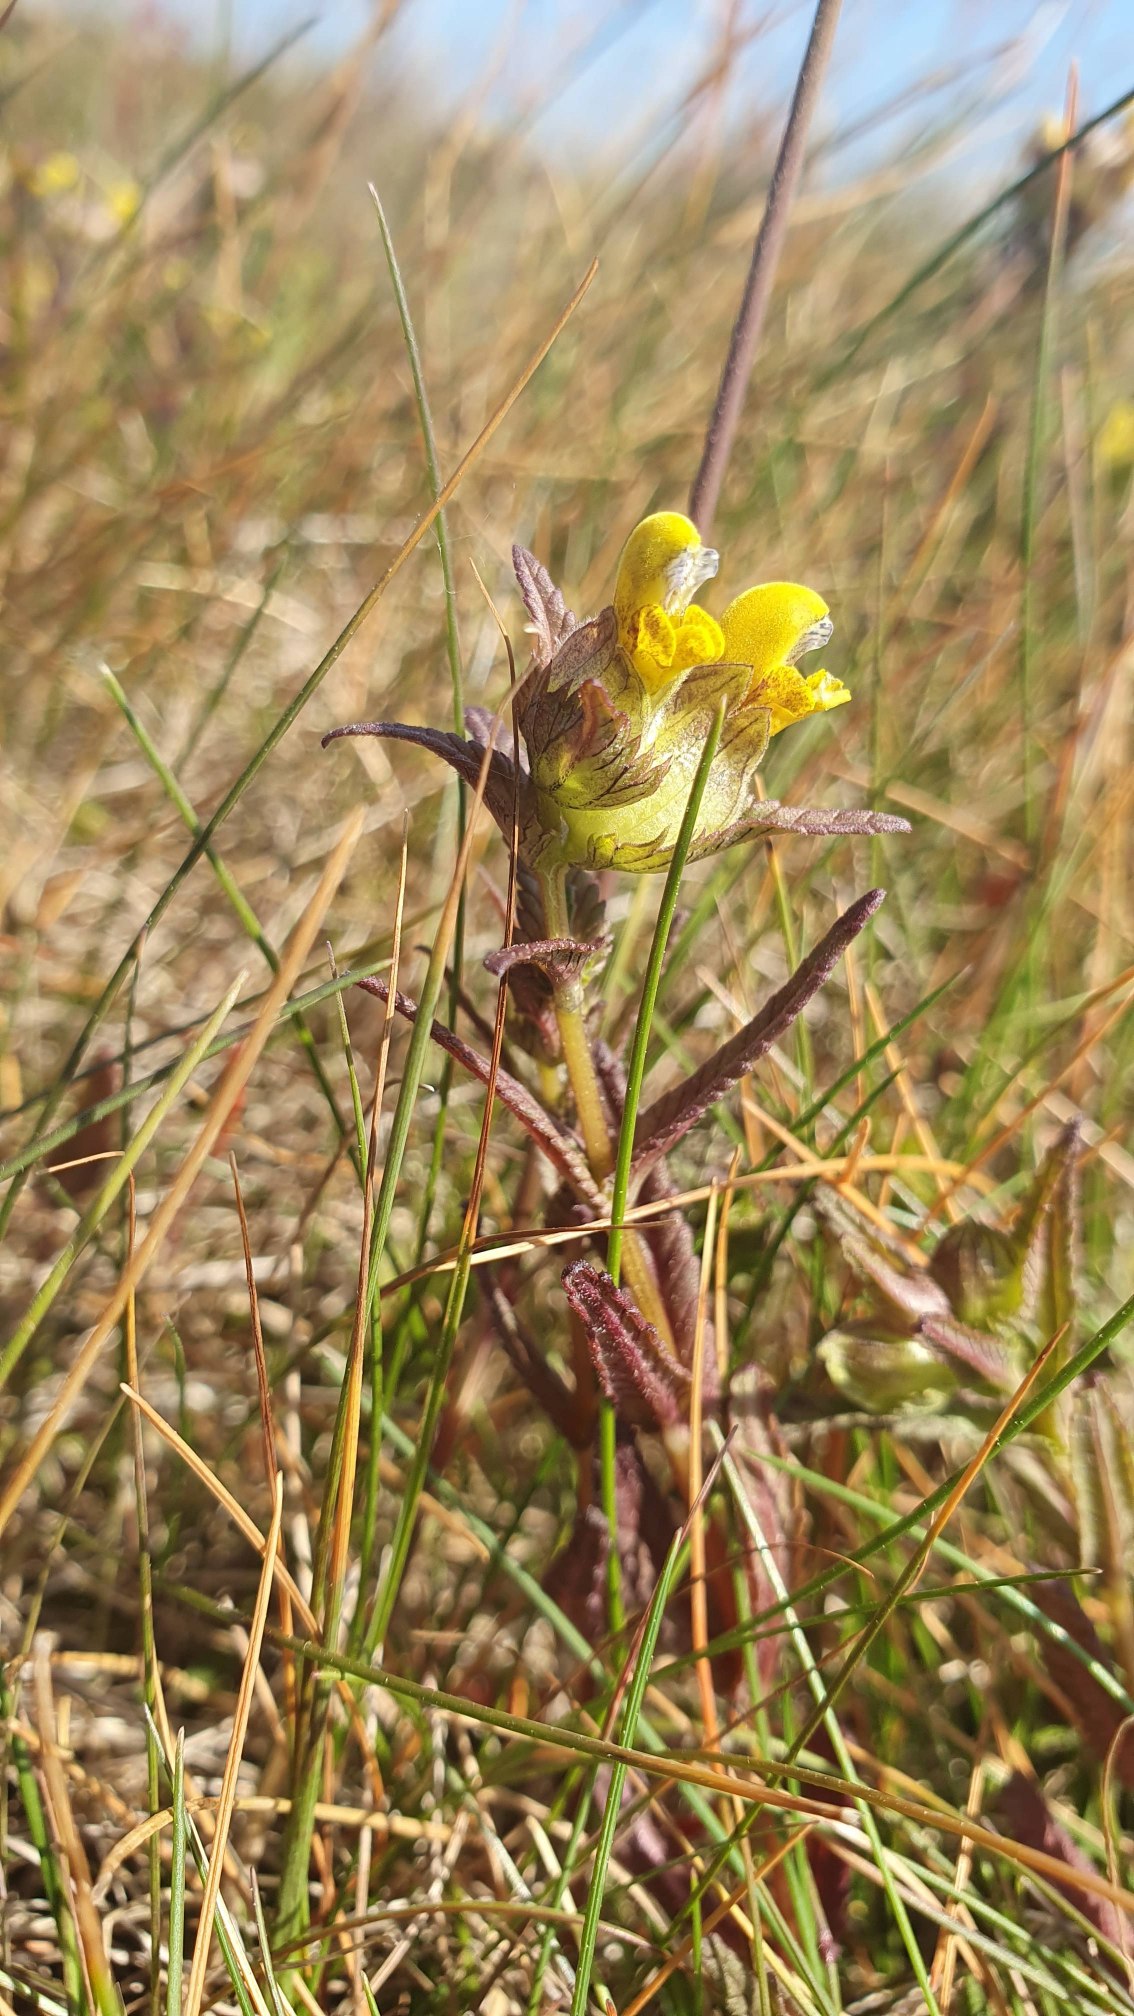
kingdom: Plantae
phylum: Tracheophyta
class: Magnoliopsida
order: Lamiales
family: Orobanchaceae
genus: Rhinanthus
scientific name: Rhinanthus minor
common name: Liden skjaller
